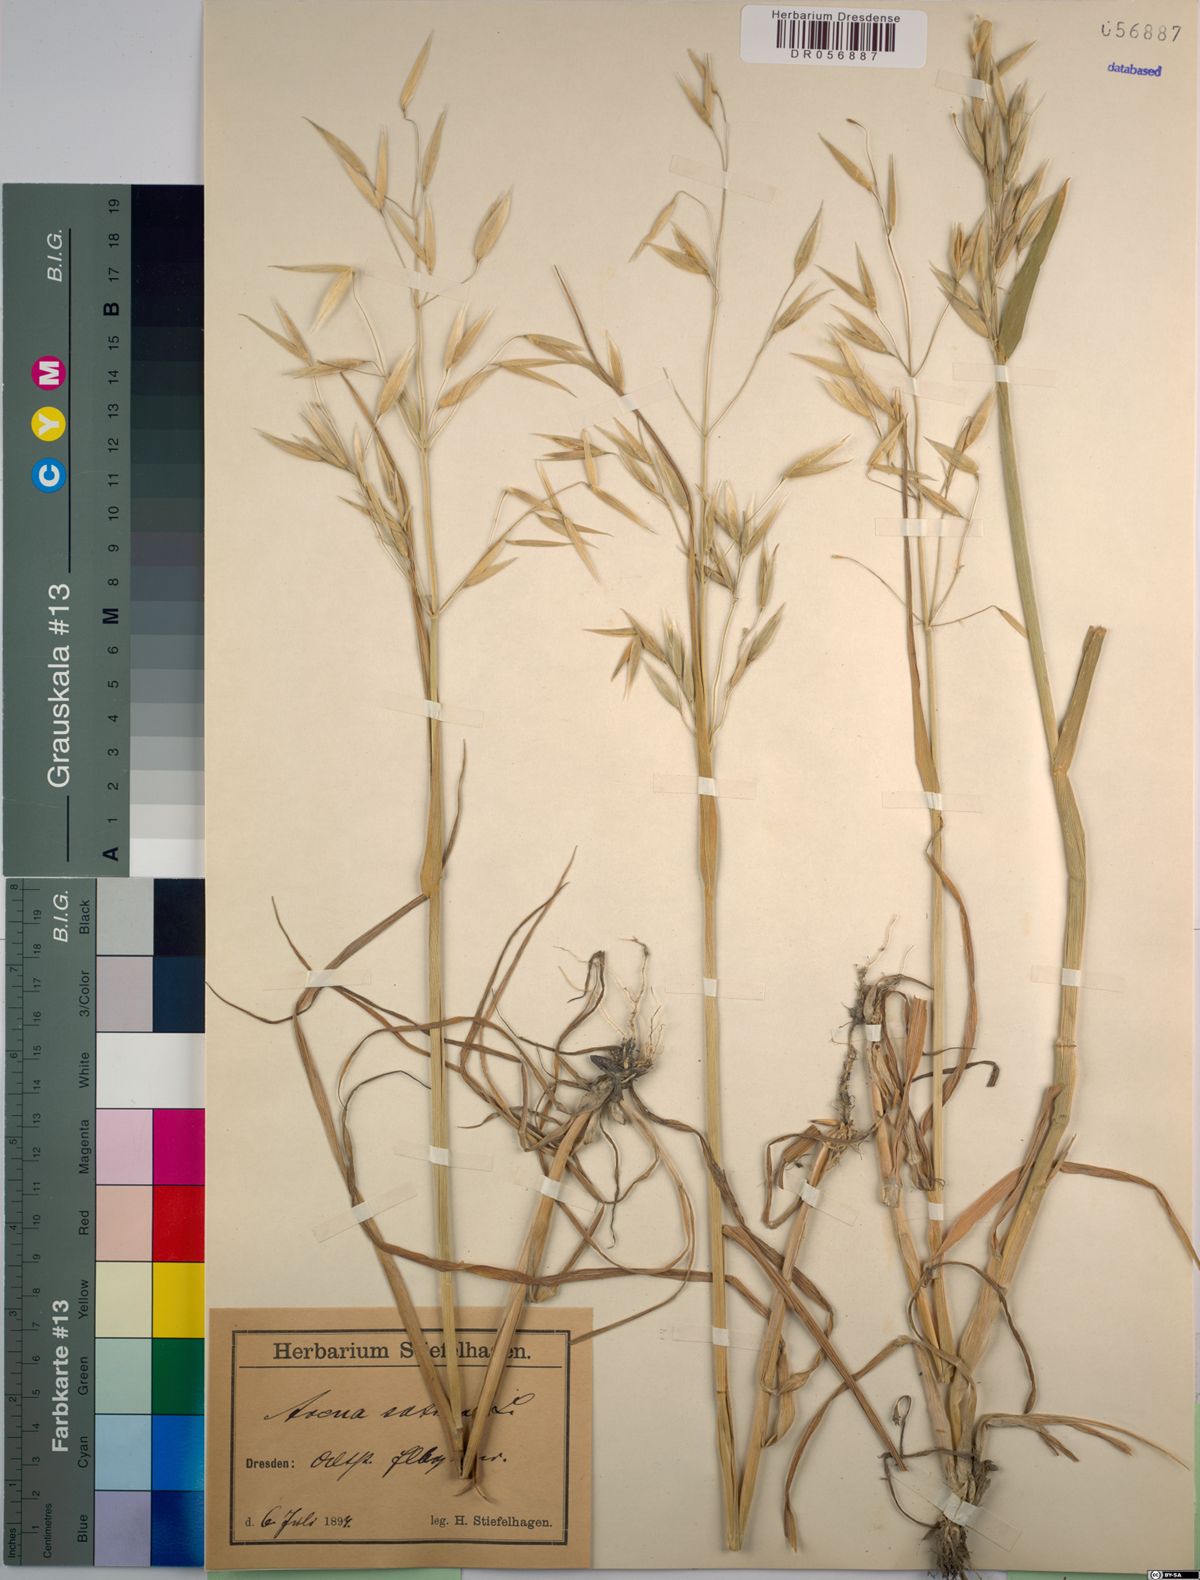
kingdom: Plantae
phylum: Tracheophyta
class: Liliopsida
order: Poales
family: Poaceae
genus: Avena
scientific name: Avena sativa
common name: Oat
